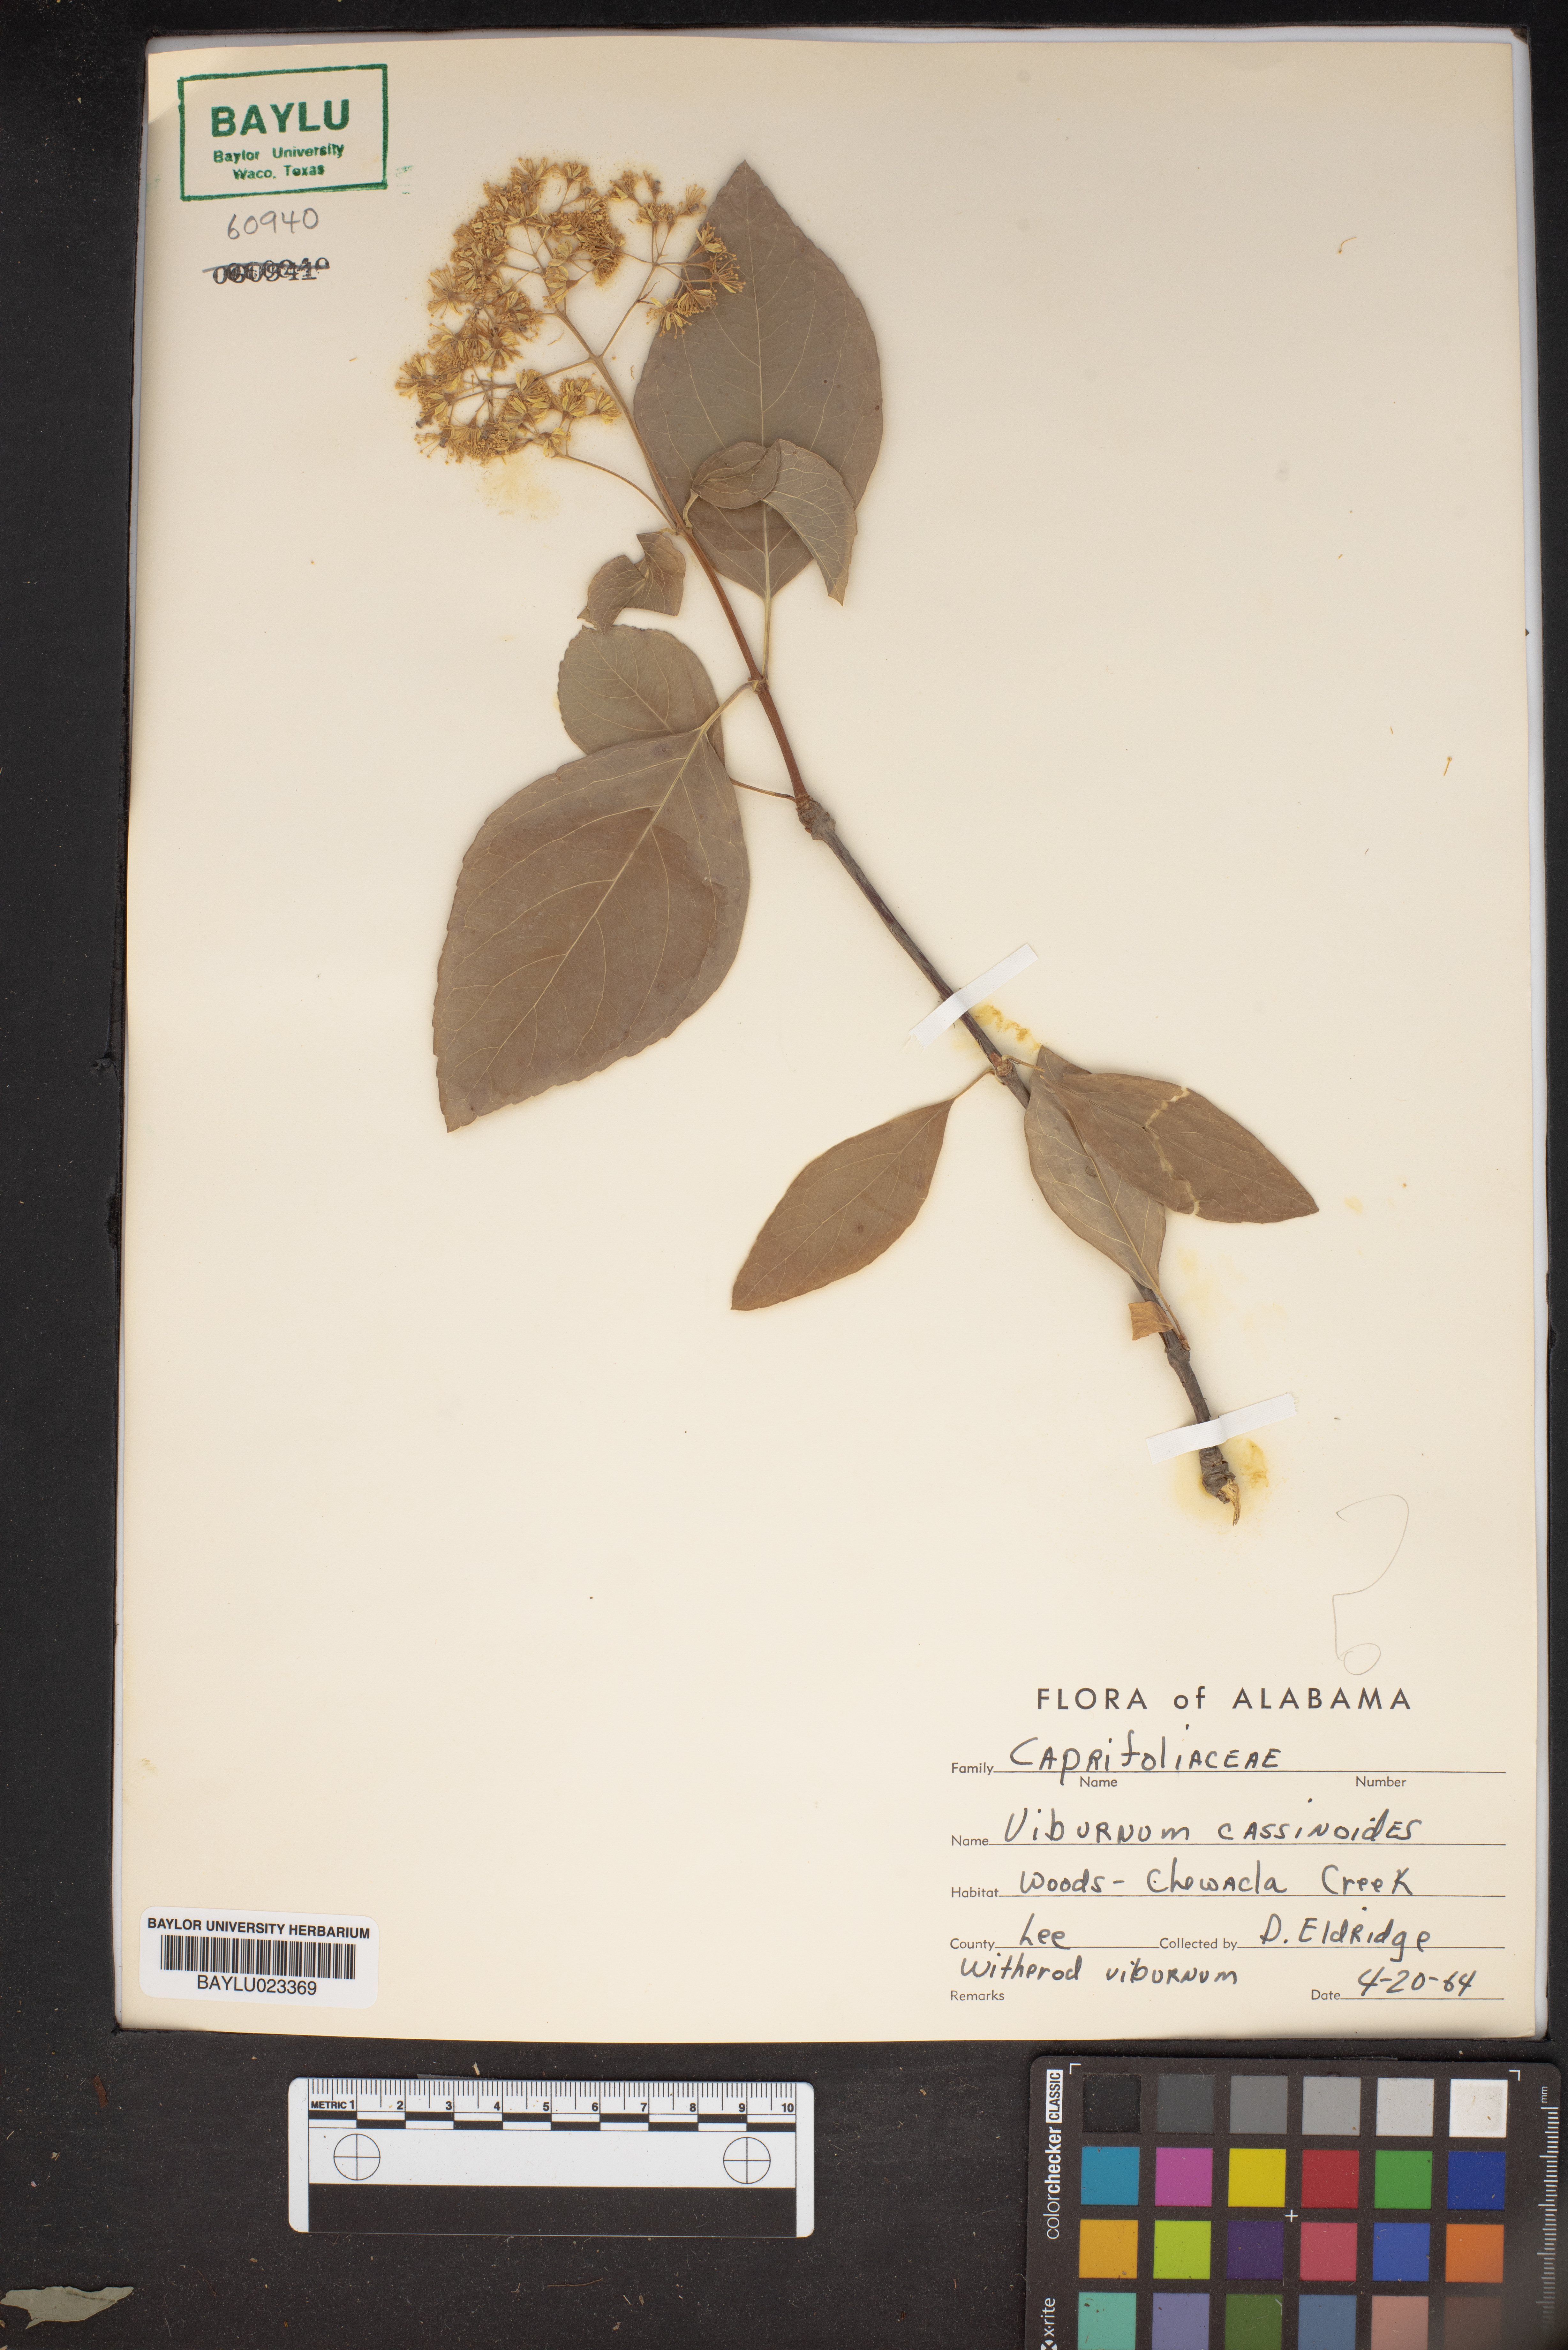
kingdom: Plantae
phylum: Tracheophyta
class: Magnoliopsida
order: Dipsacales
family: Viburnaceae
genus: Viburnum
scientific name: Viburnum cassinoides
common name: Swamp haw
